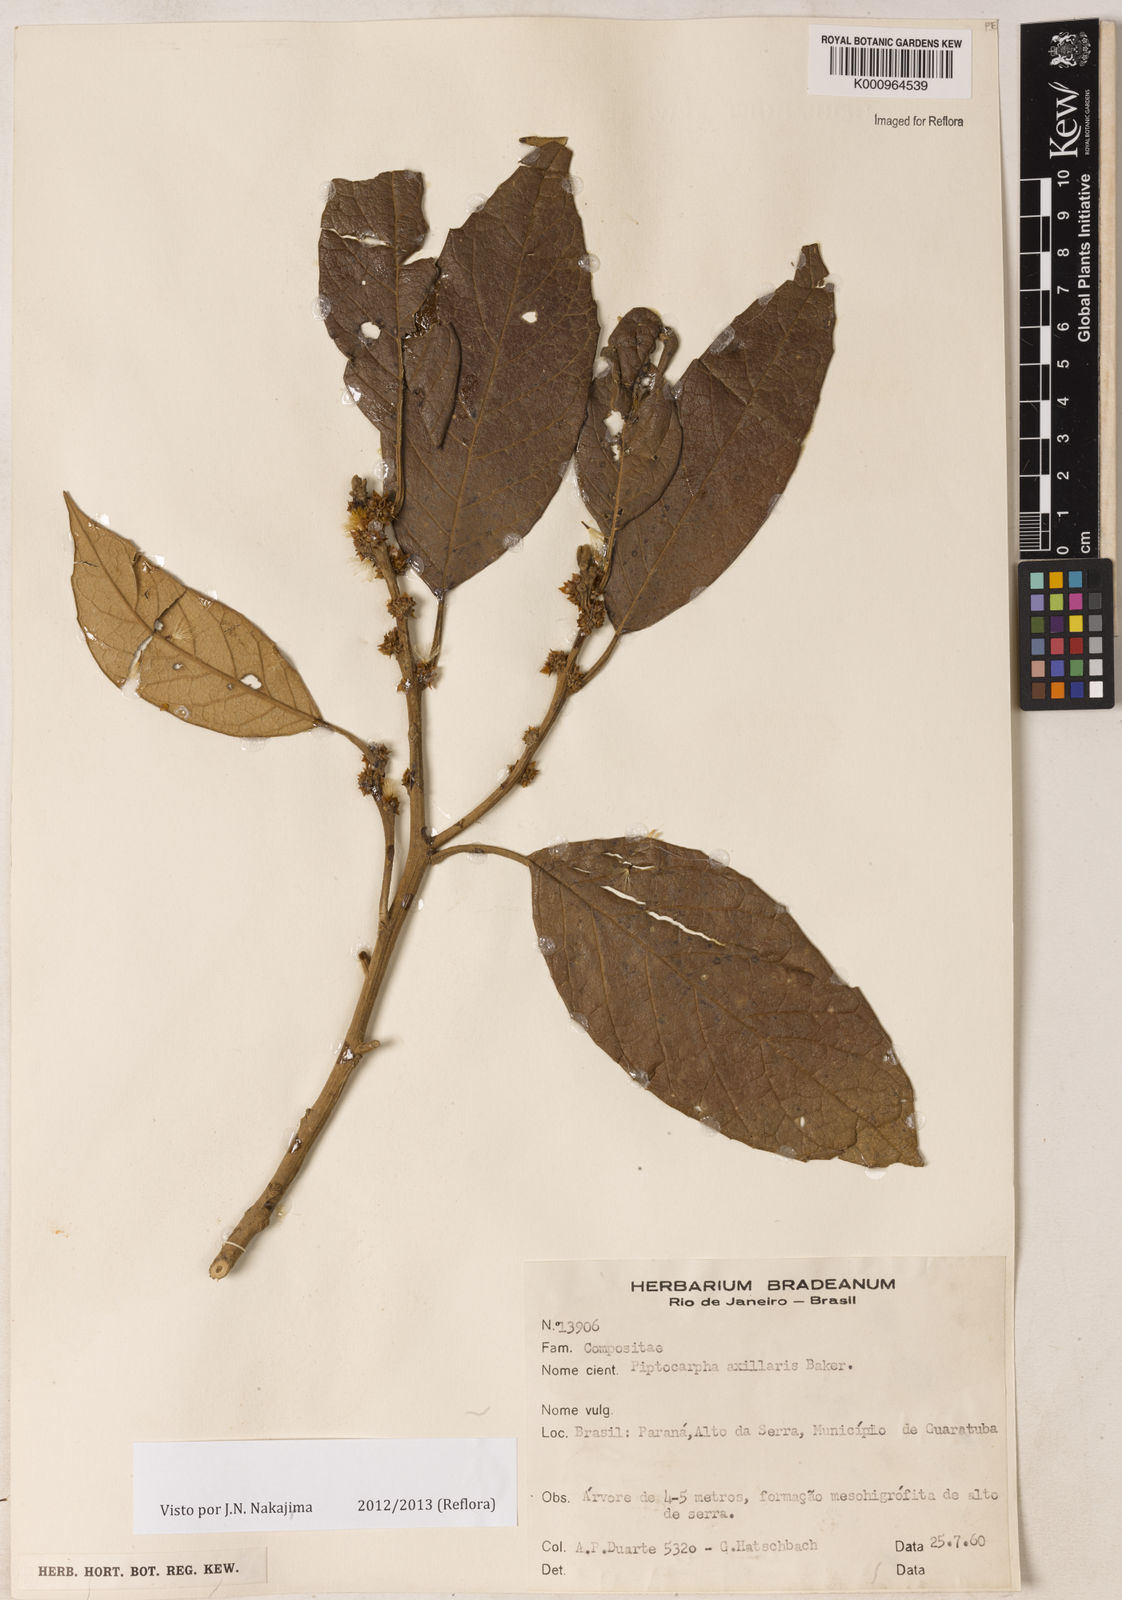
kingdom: Plantae
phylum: Tracheophyta
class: Magnoliopsida
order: Asterales
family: Asteraceae
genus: Piptocarpha
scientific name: Piptocarpha axillaris
